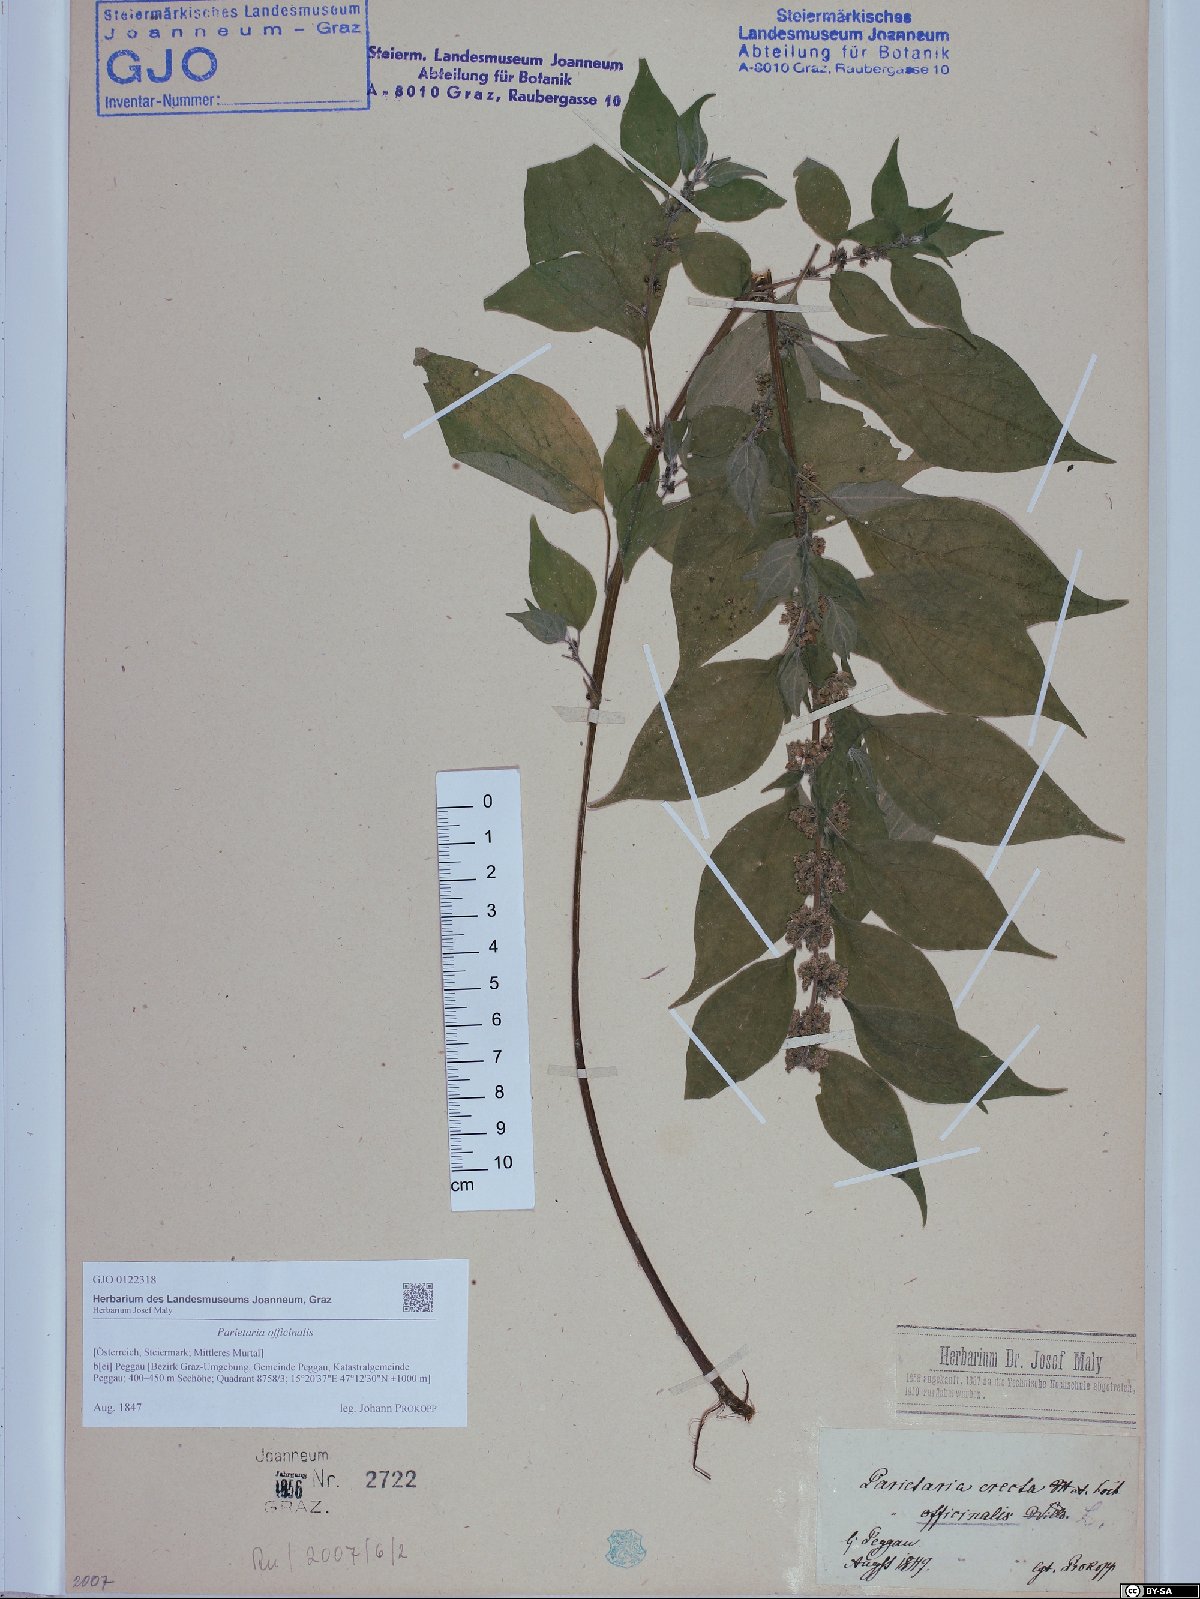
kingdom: Plantae
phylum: Tracheophyta
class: Magnoliopsida
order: Rosales
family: Urticaceae
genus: Parietaria
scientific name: Parietaria officinalis
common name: Eastern pellitory-of-the-wall
